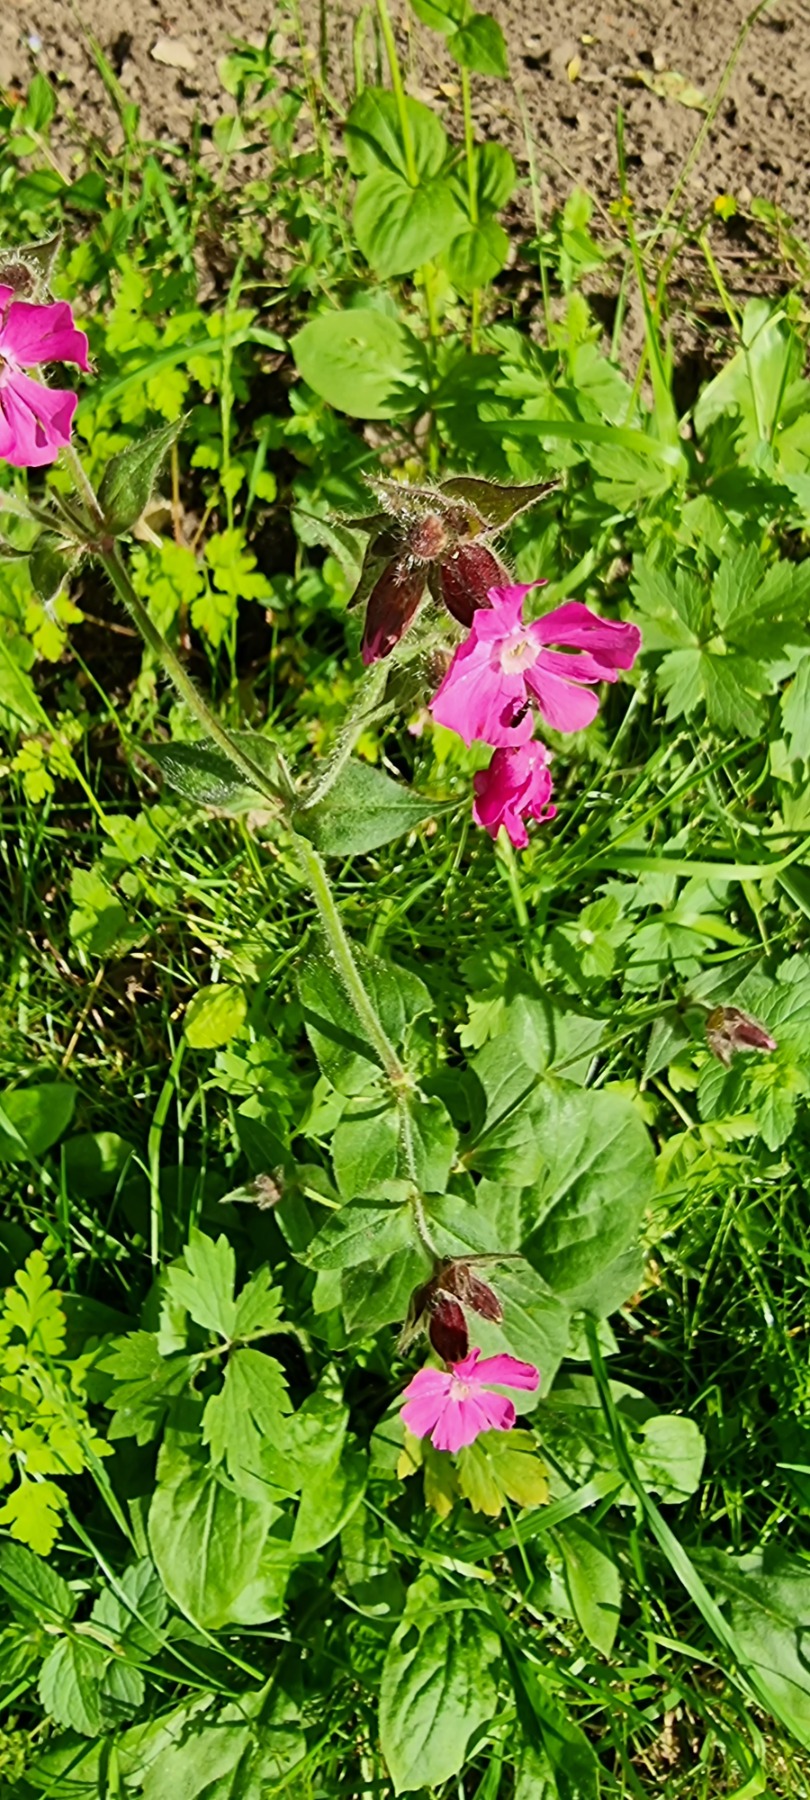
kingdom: Plantae
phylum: Tracheophyta
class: Magnoliopsida
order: Caryophyllales
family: Caryophyllaceae
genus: Silene
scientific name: Silene dioica
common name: Dagpragtstjerne
